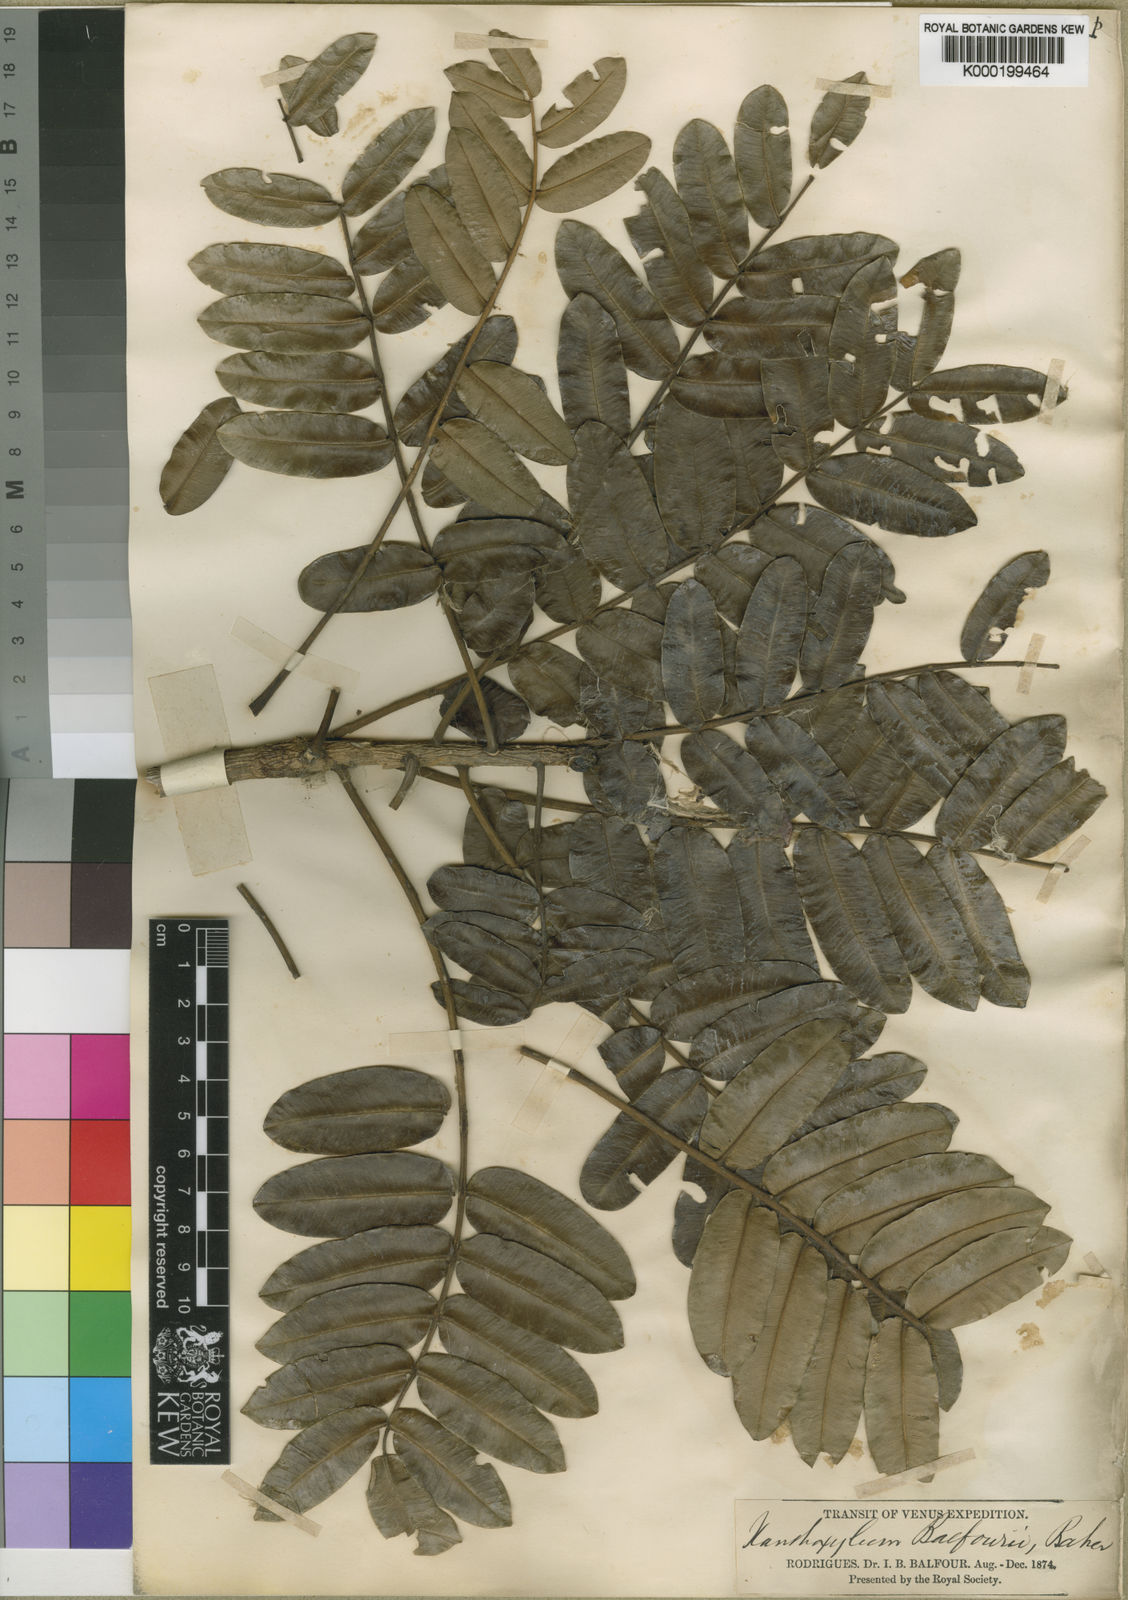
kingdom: Plantae
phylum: Tracheophyta
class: Magnoliopsida
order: Sapindales
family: Rutaceae
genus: Zanthoxylum
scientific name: Zanthoxylum paniculatum
